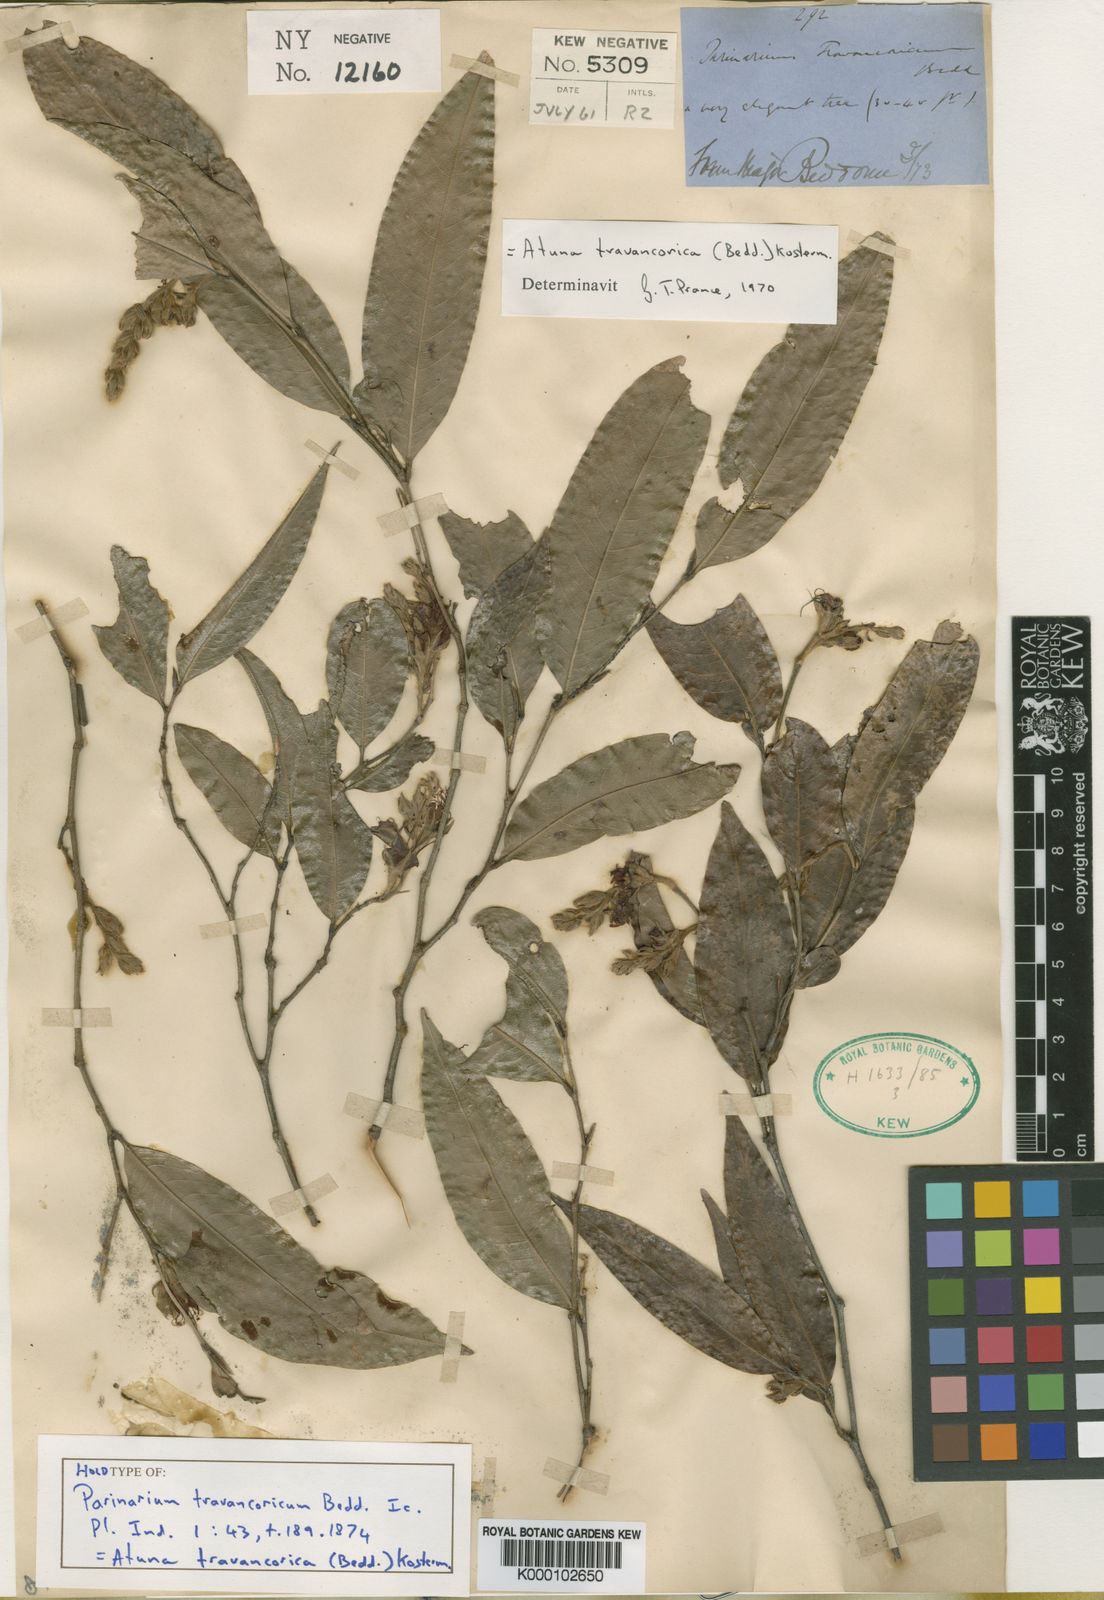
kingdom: Plantae
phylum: Tracheophyta
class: Magnoliopsida
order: Malpighiales
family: Chrysobalanaceae
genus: Atuna
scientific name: Atuna travancorica
